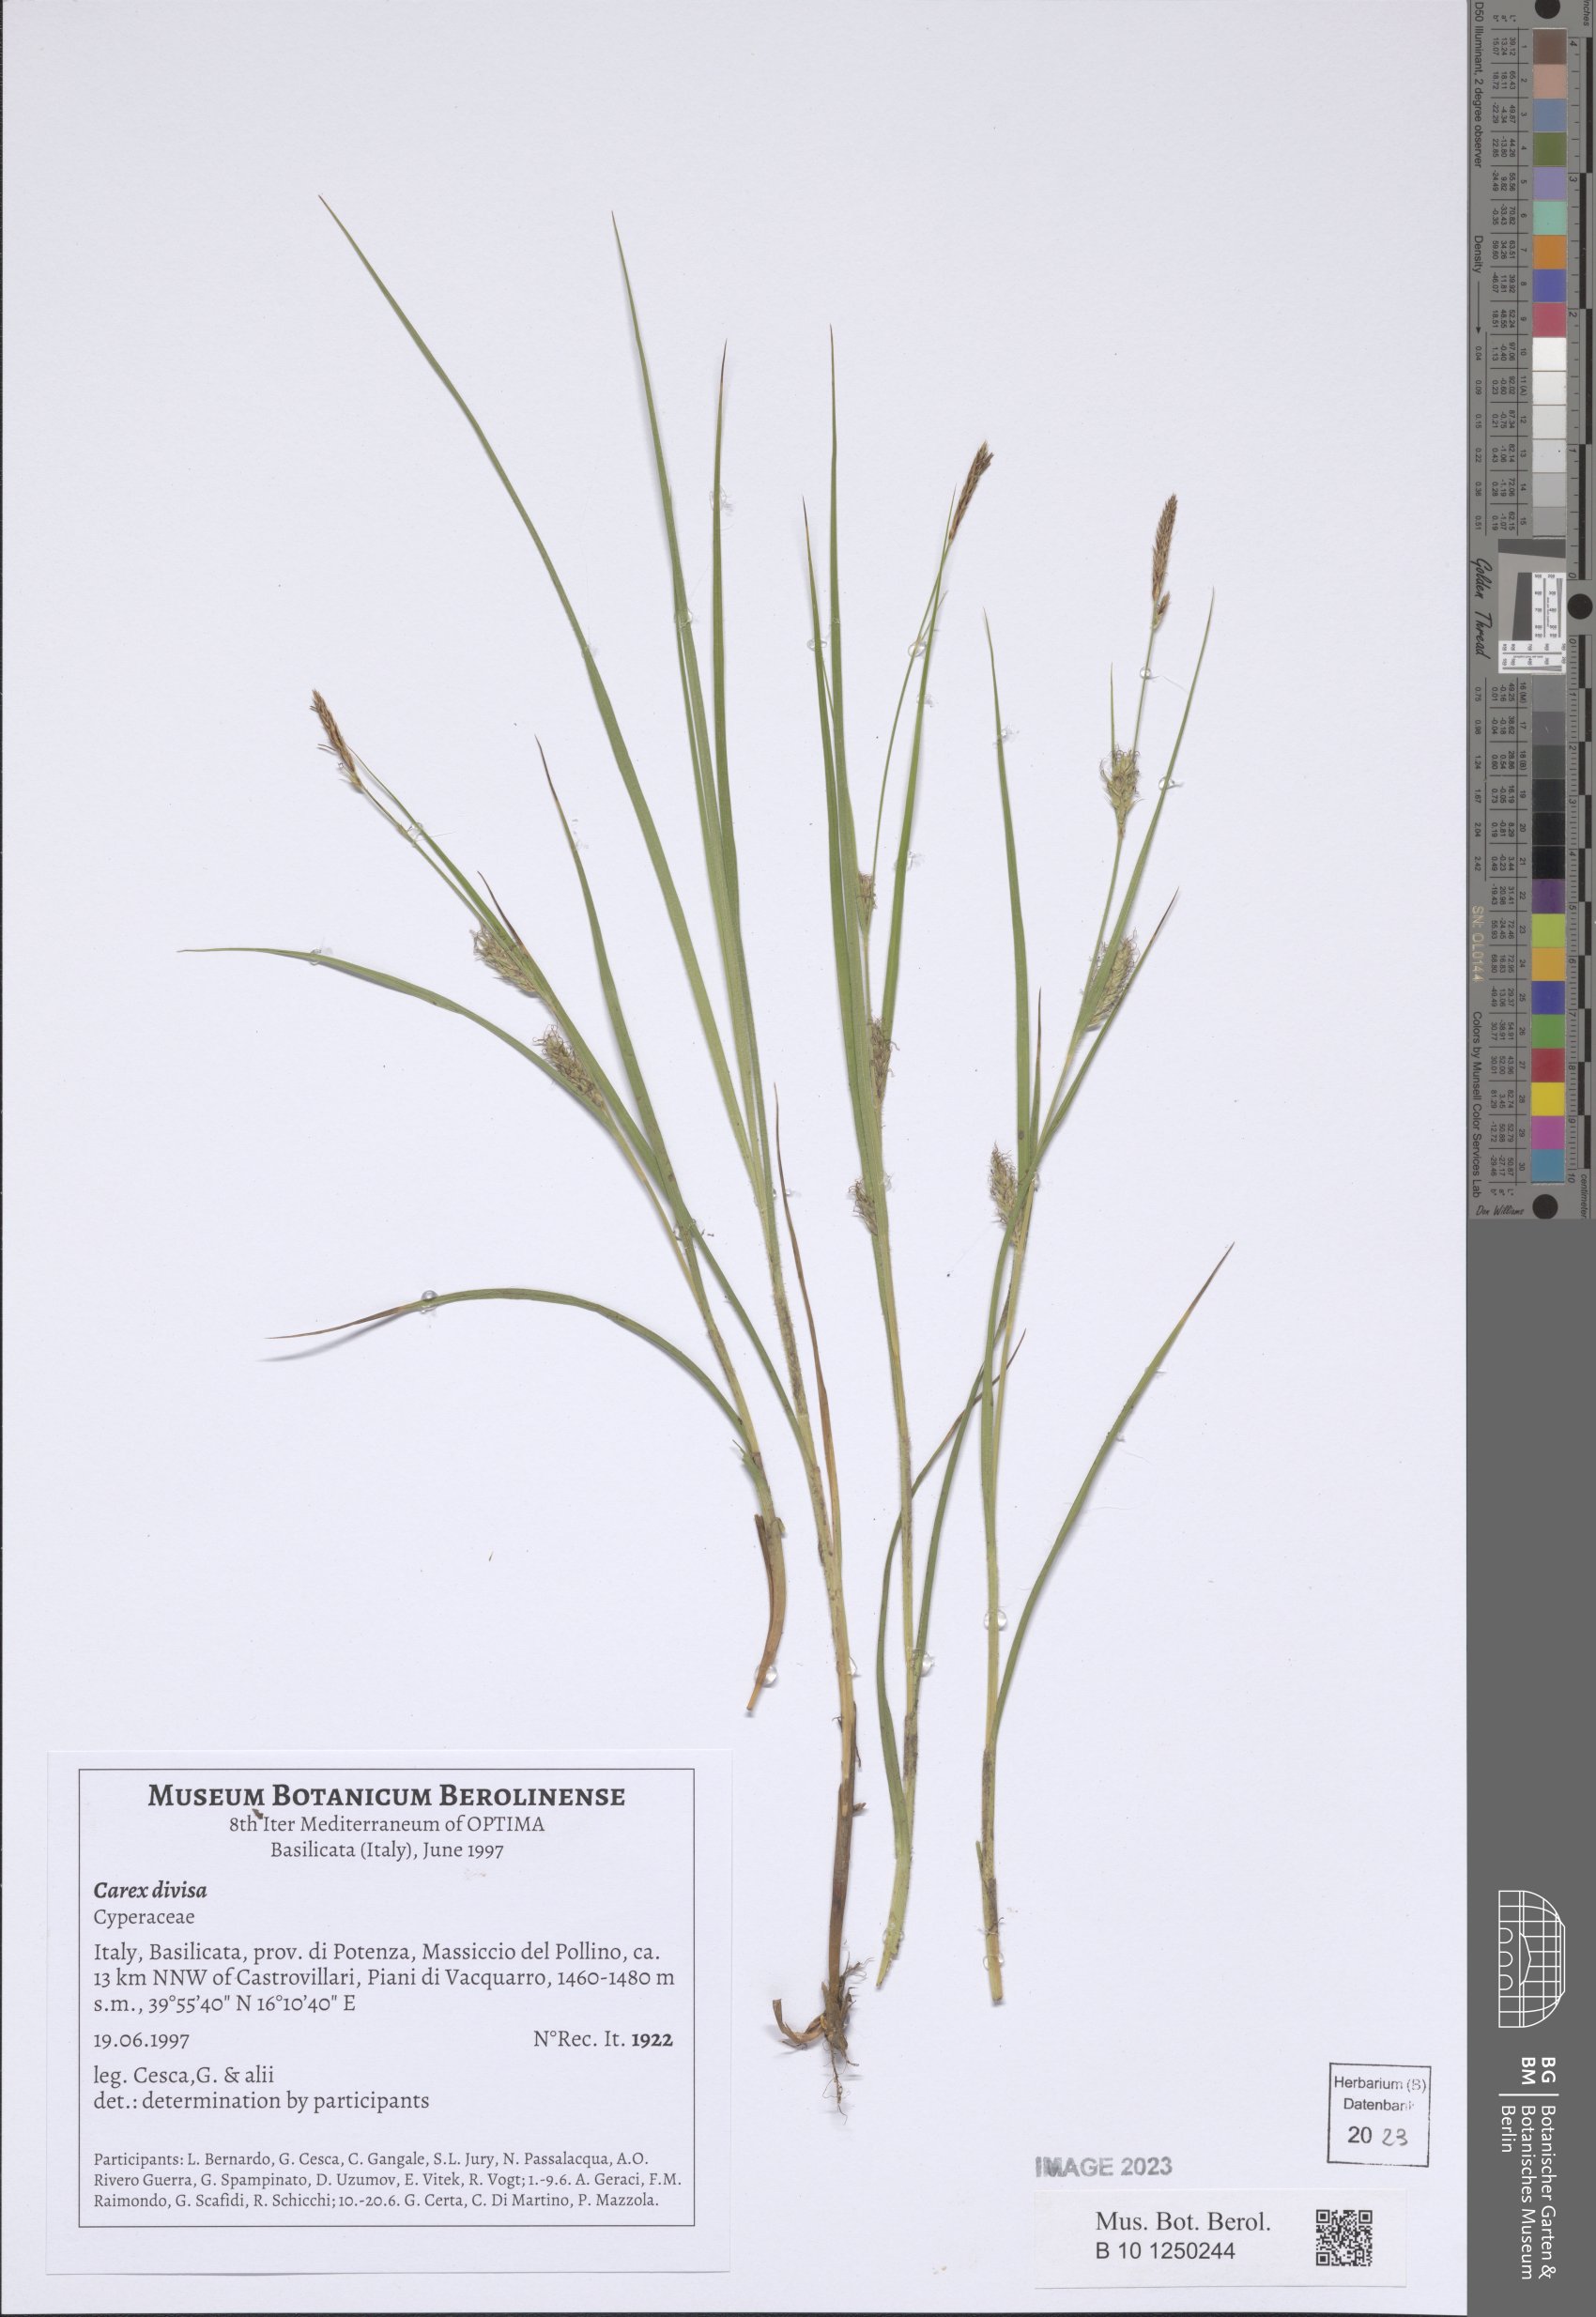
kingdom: Plantae
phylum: Tracheophyta
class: Liliopsida
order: Poales
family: Cyperaceae
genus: Carex
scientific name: Carex divisa
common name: Divided sedge
